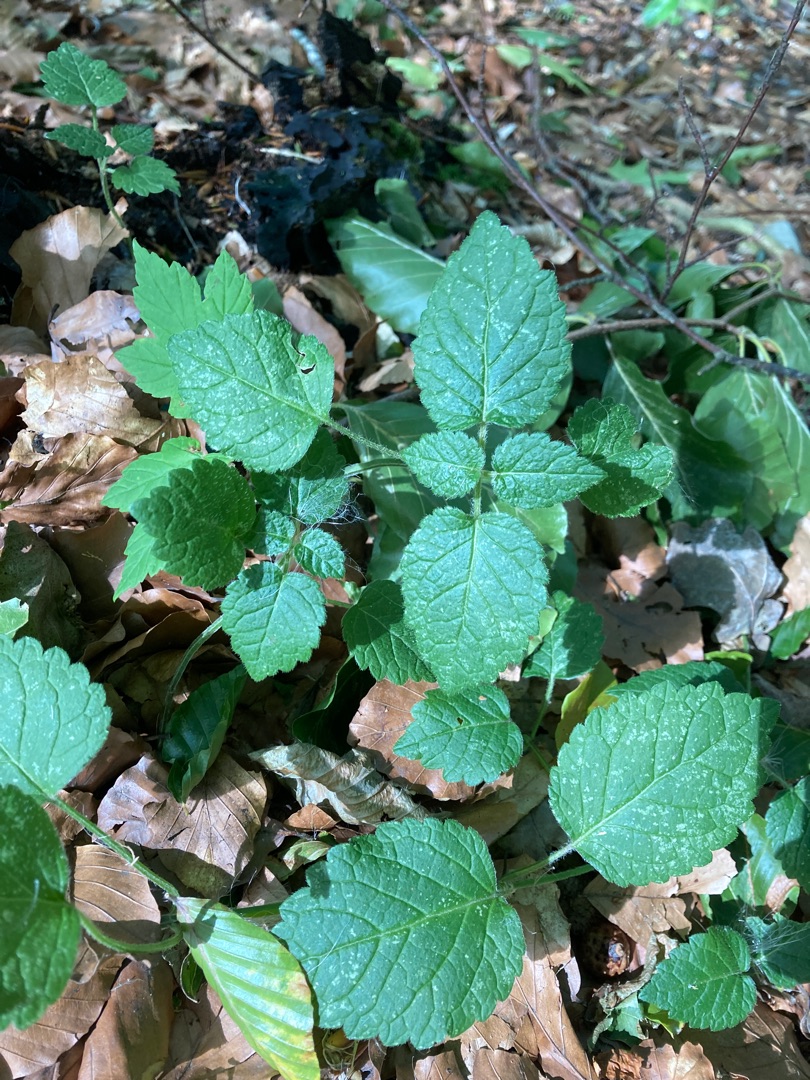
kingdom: Plantae
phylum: Tracheophyta
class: Magnoliopsida
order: Lamiales
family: Lamiaceae
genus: Lamium
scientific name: Lamium galeobdolon
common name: Guldnælde
